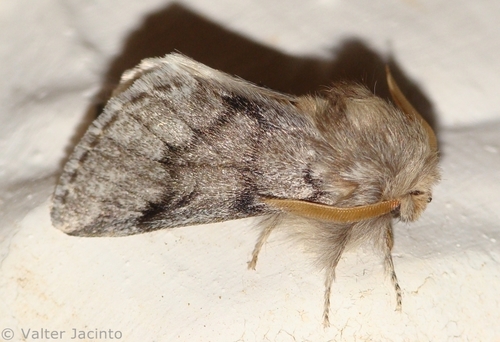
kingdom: Animalia
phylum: Arthropoda
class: Insecta
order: Lepidoptera
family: Notodontidae
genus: Thaumetopoea
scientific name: Thaumetopoea pityocampa
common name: Pine processionary
